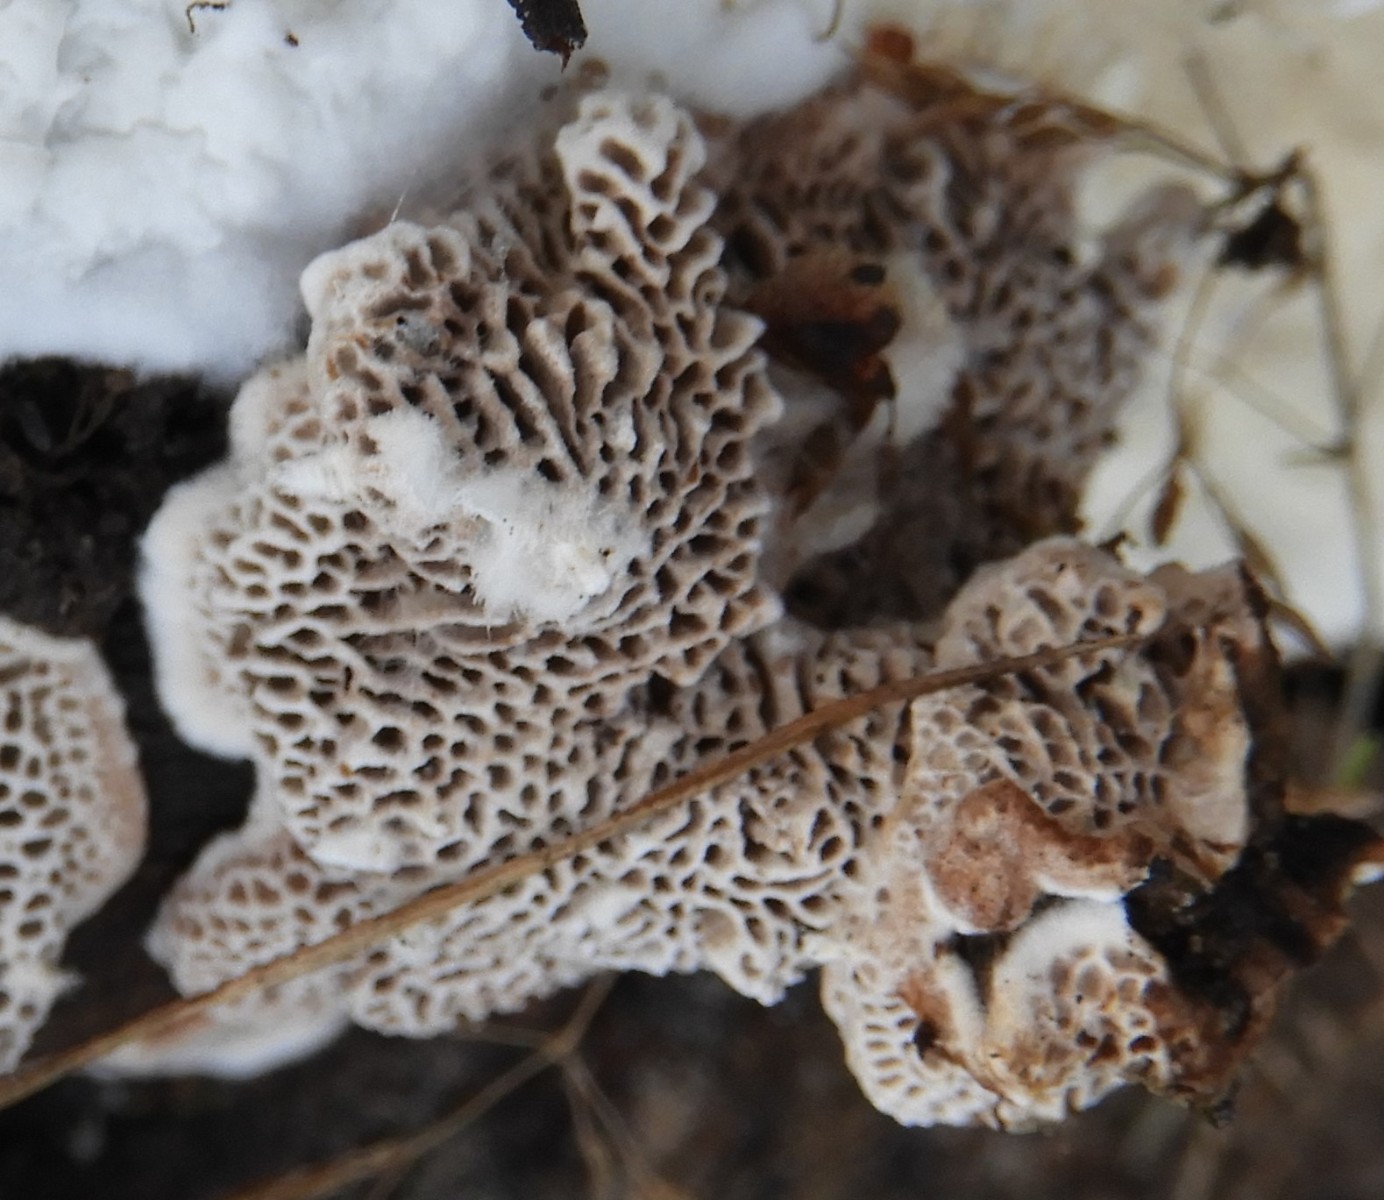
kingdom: Fungi
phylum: Basidiomycota
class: Agaricomycetes
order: Polyporales
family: Polyporaceae
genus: Podofomes
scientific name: Podofomes mollis
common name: blød begporesvamp
